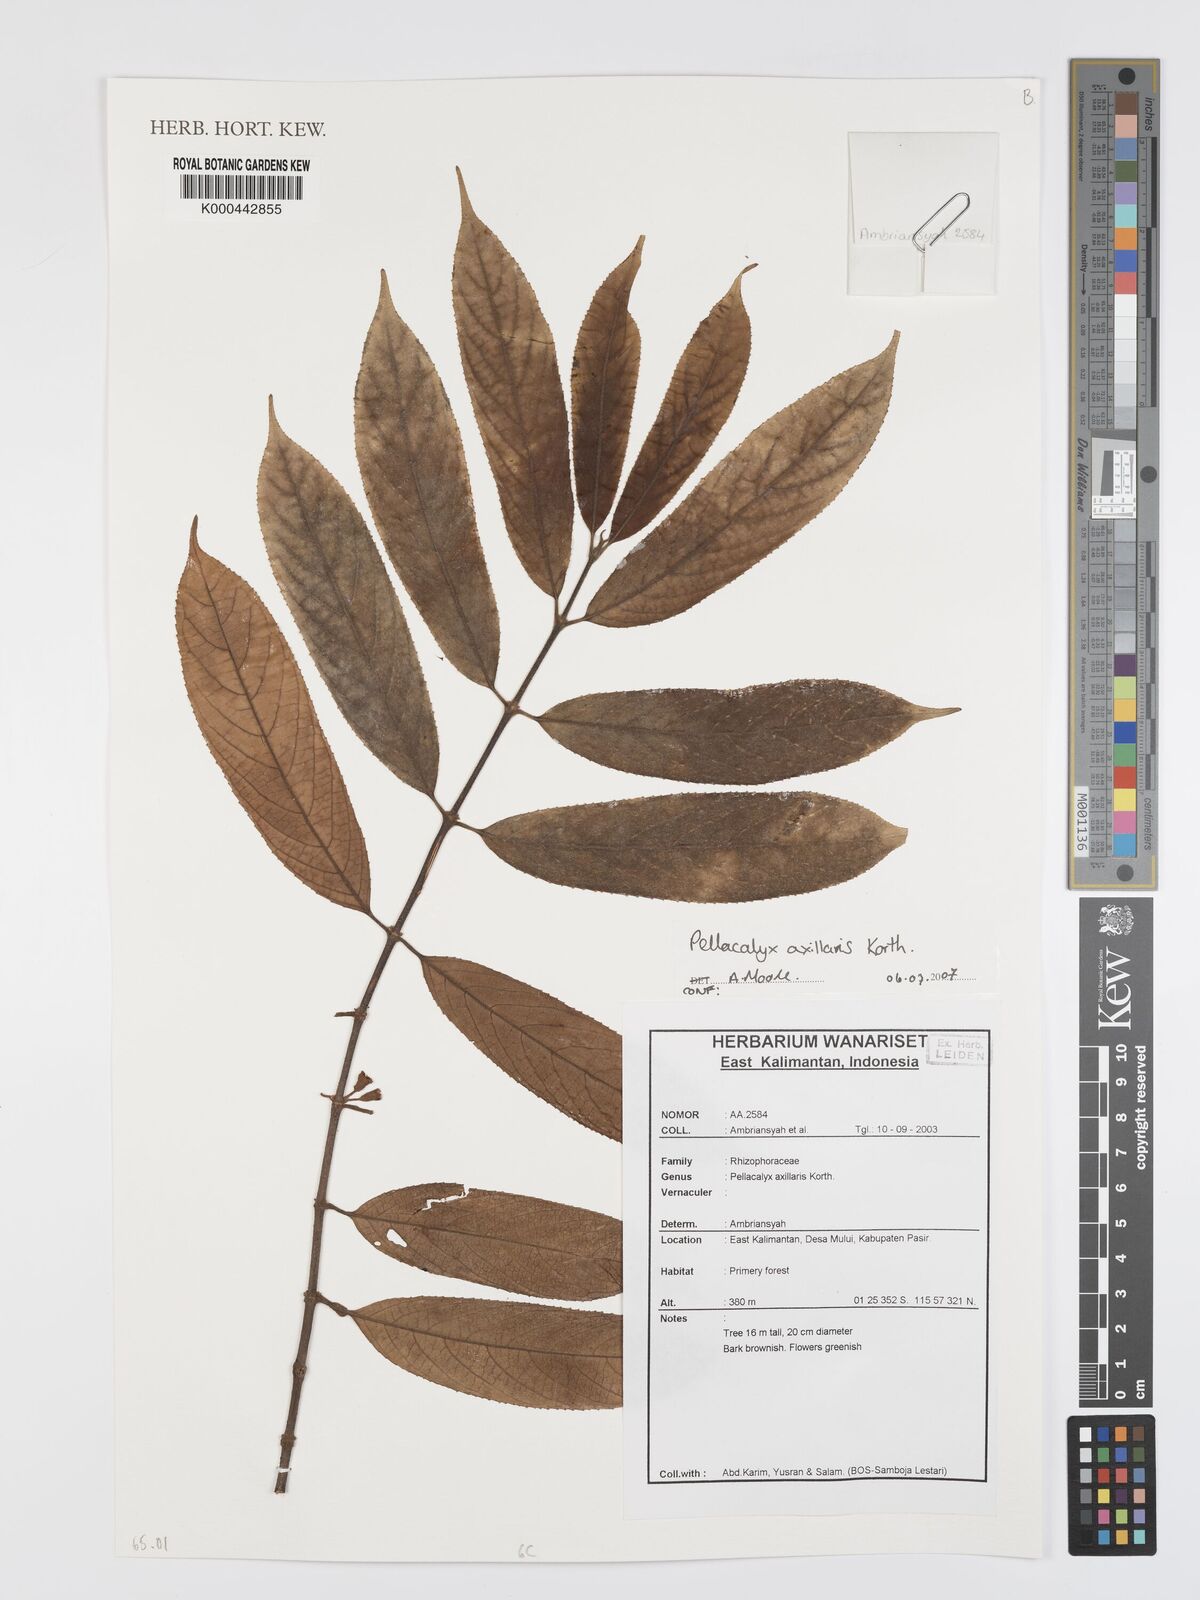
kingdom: Plantae
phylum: Tracheophyta
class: Magnoliopsida
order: Malpighiales
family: Rhizophoraceae
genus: Pellacalyx
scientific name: Pellacalyx axillaris
